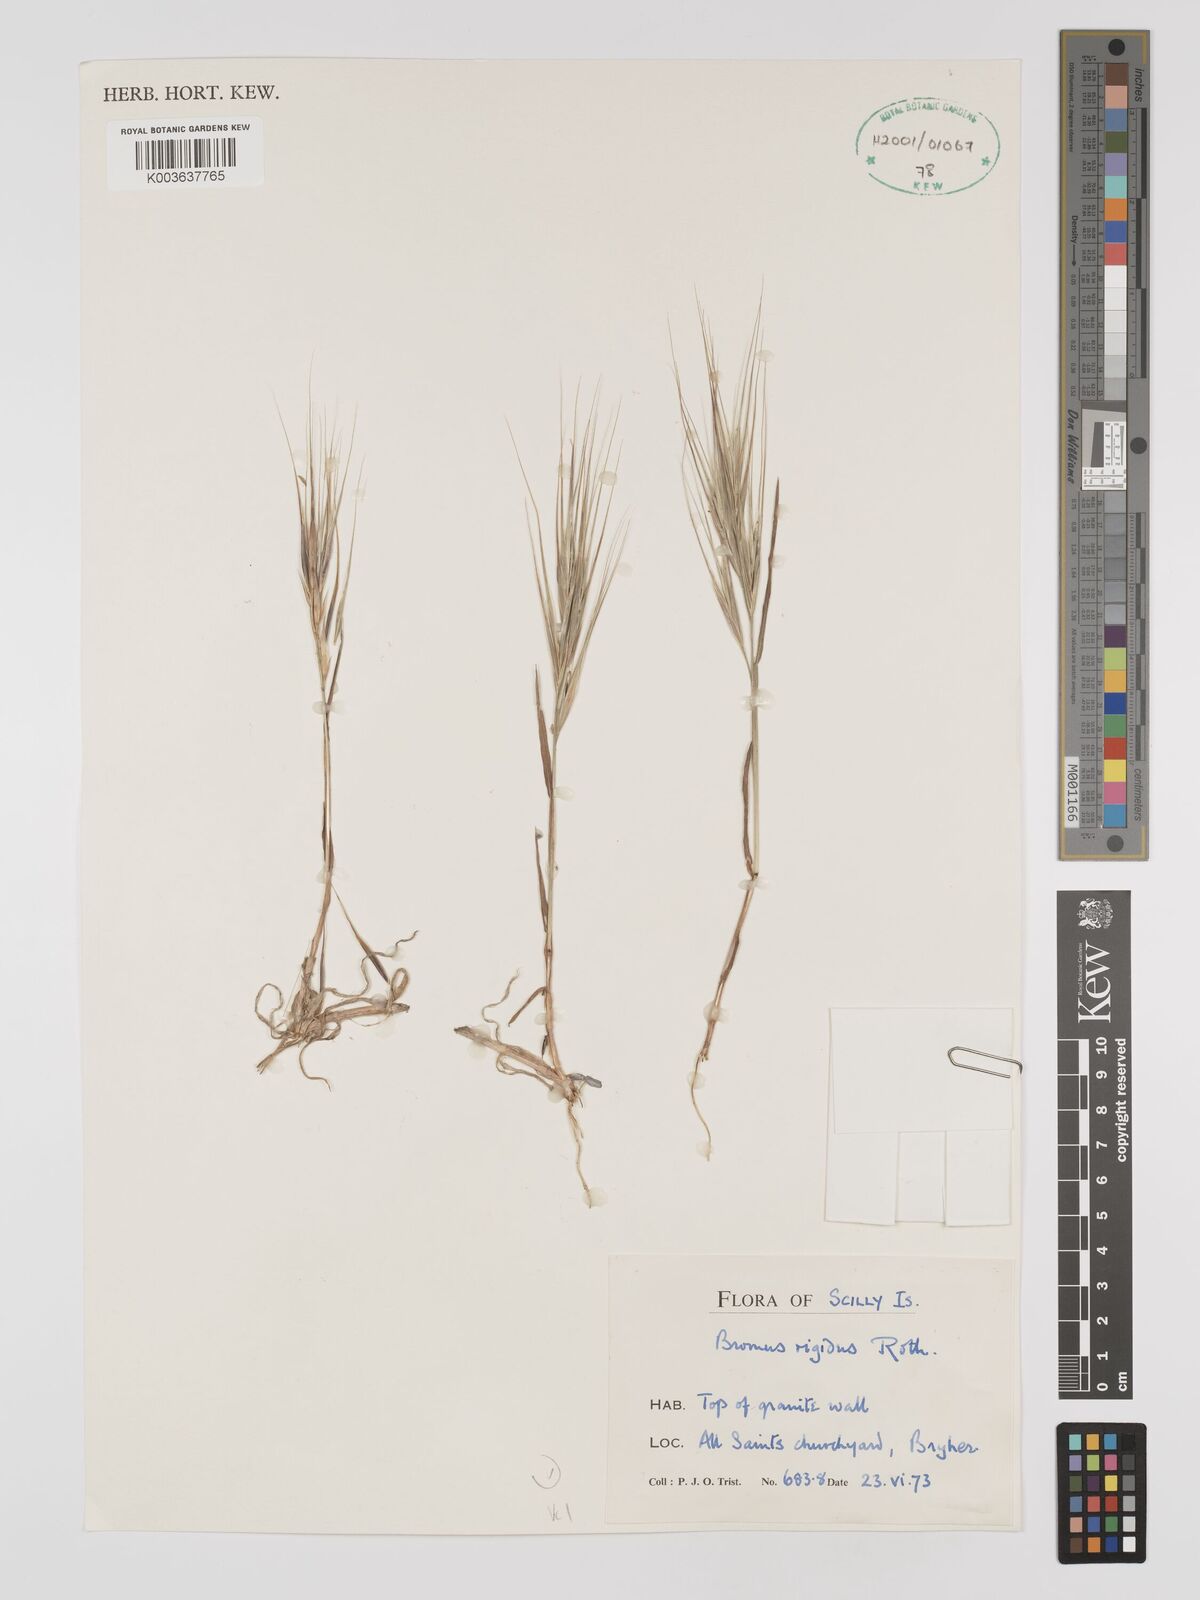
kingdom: Plantae
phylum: Tracheophyta
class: Liliopsida
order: Poales
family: Poaceae
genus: Bromus
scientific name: Bromus
